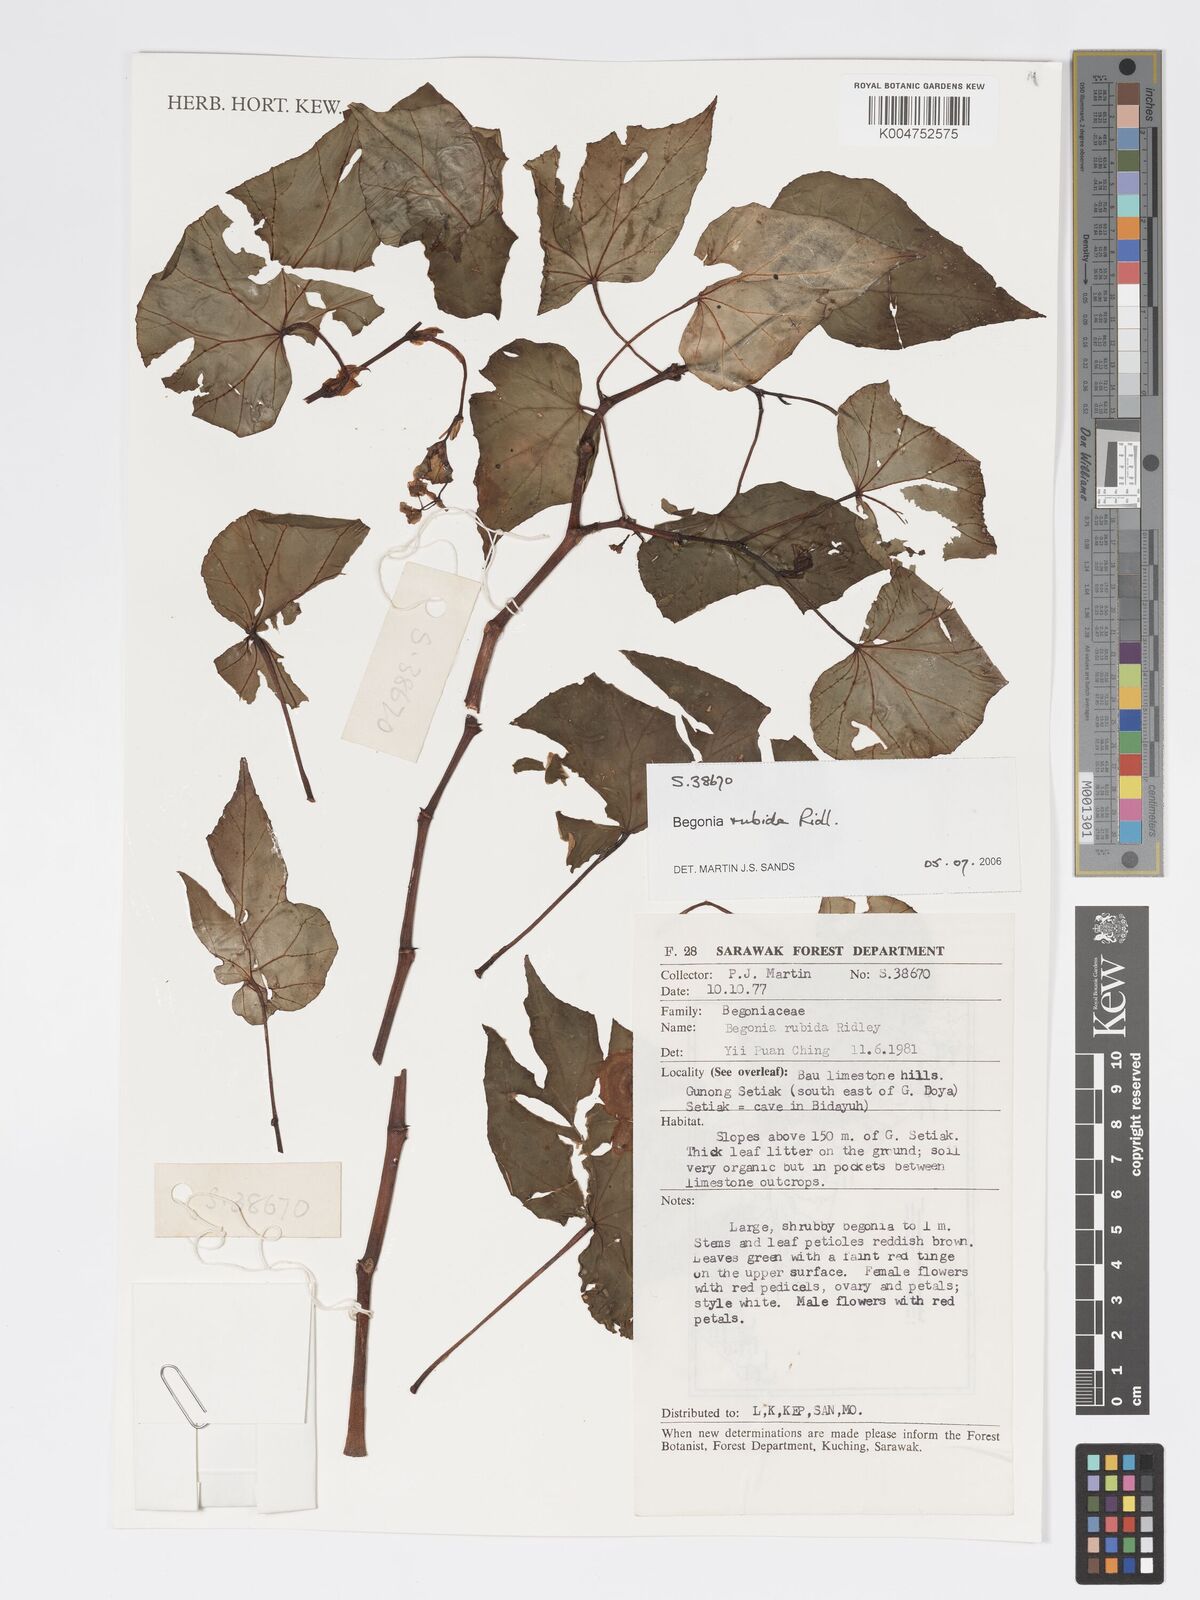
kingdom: Plantae
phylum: Tracheophyta
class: Magnoliopsida
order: Cucurbitales
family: Begoniaceae
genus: Begonia
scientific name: Begonia rubida
